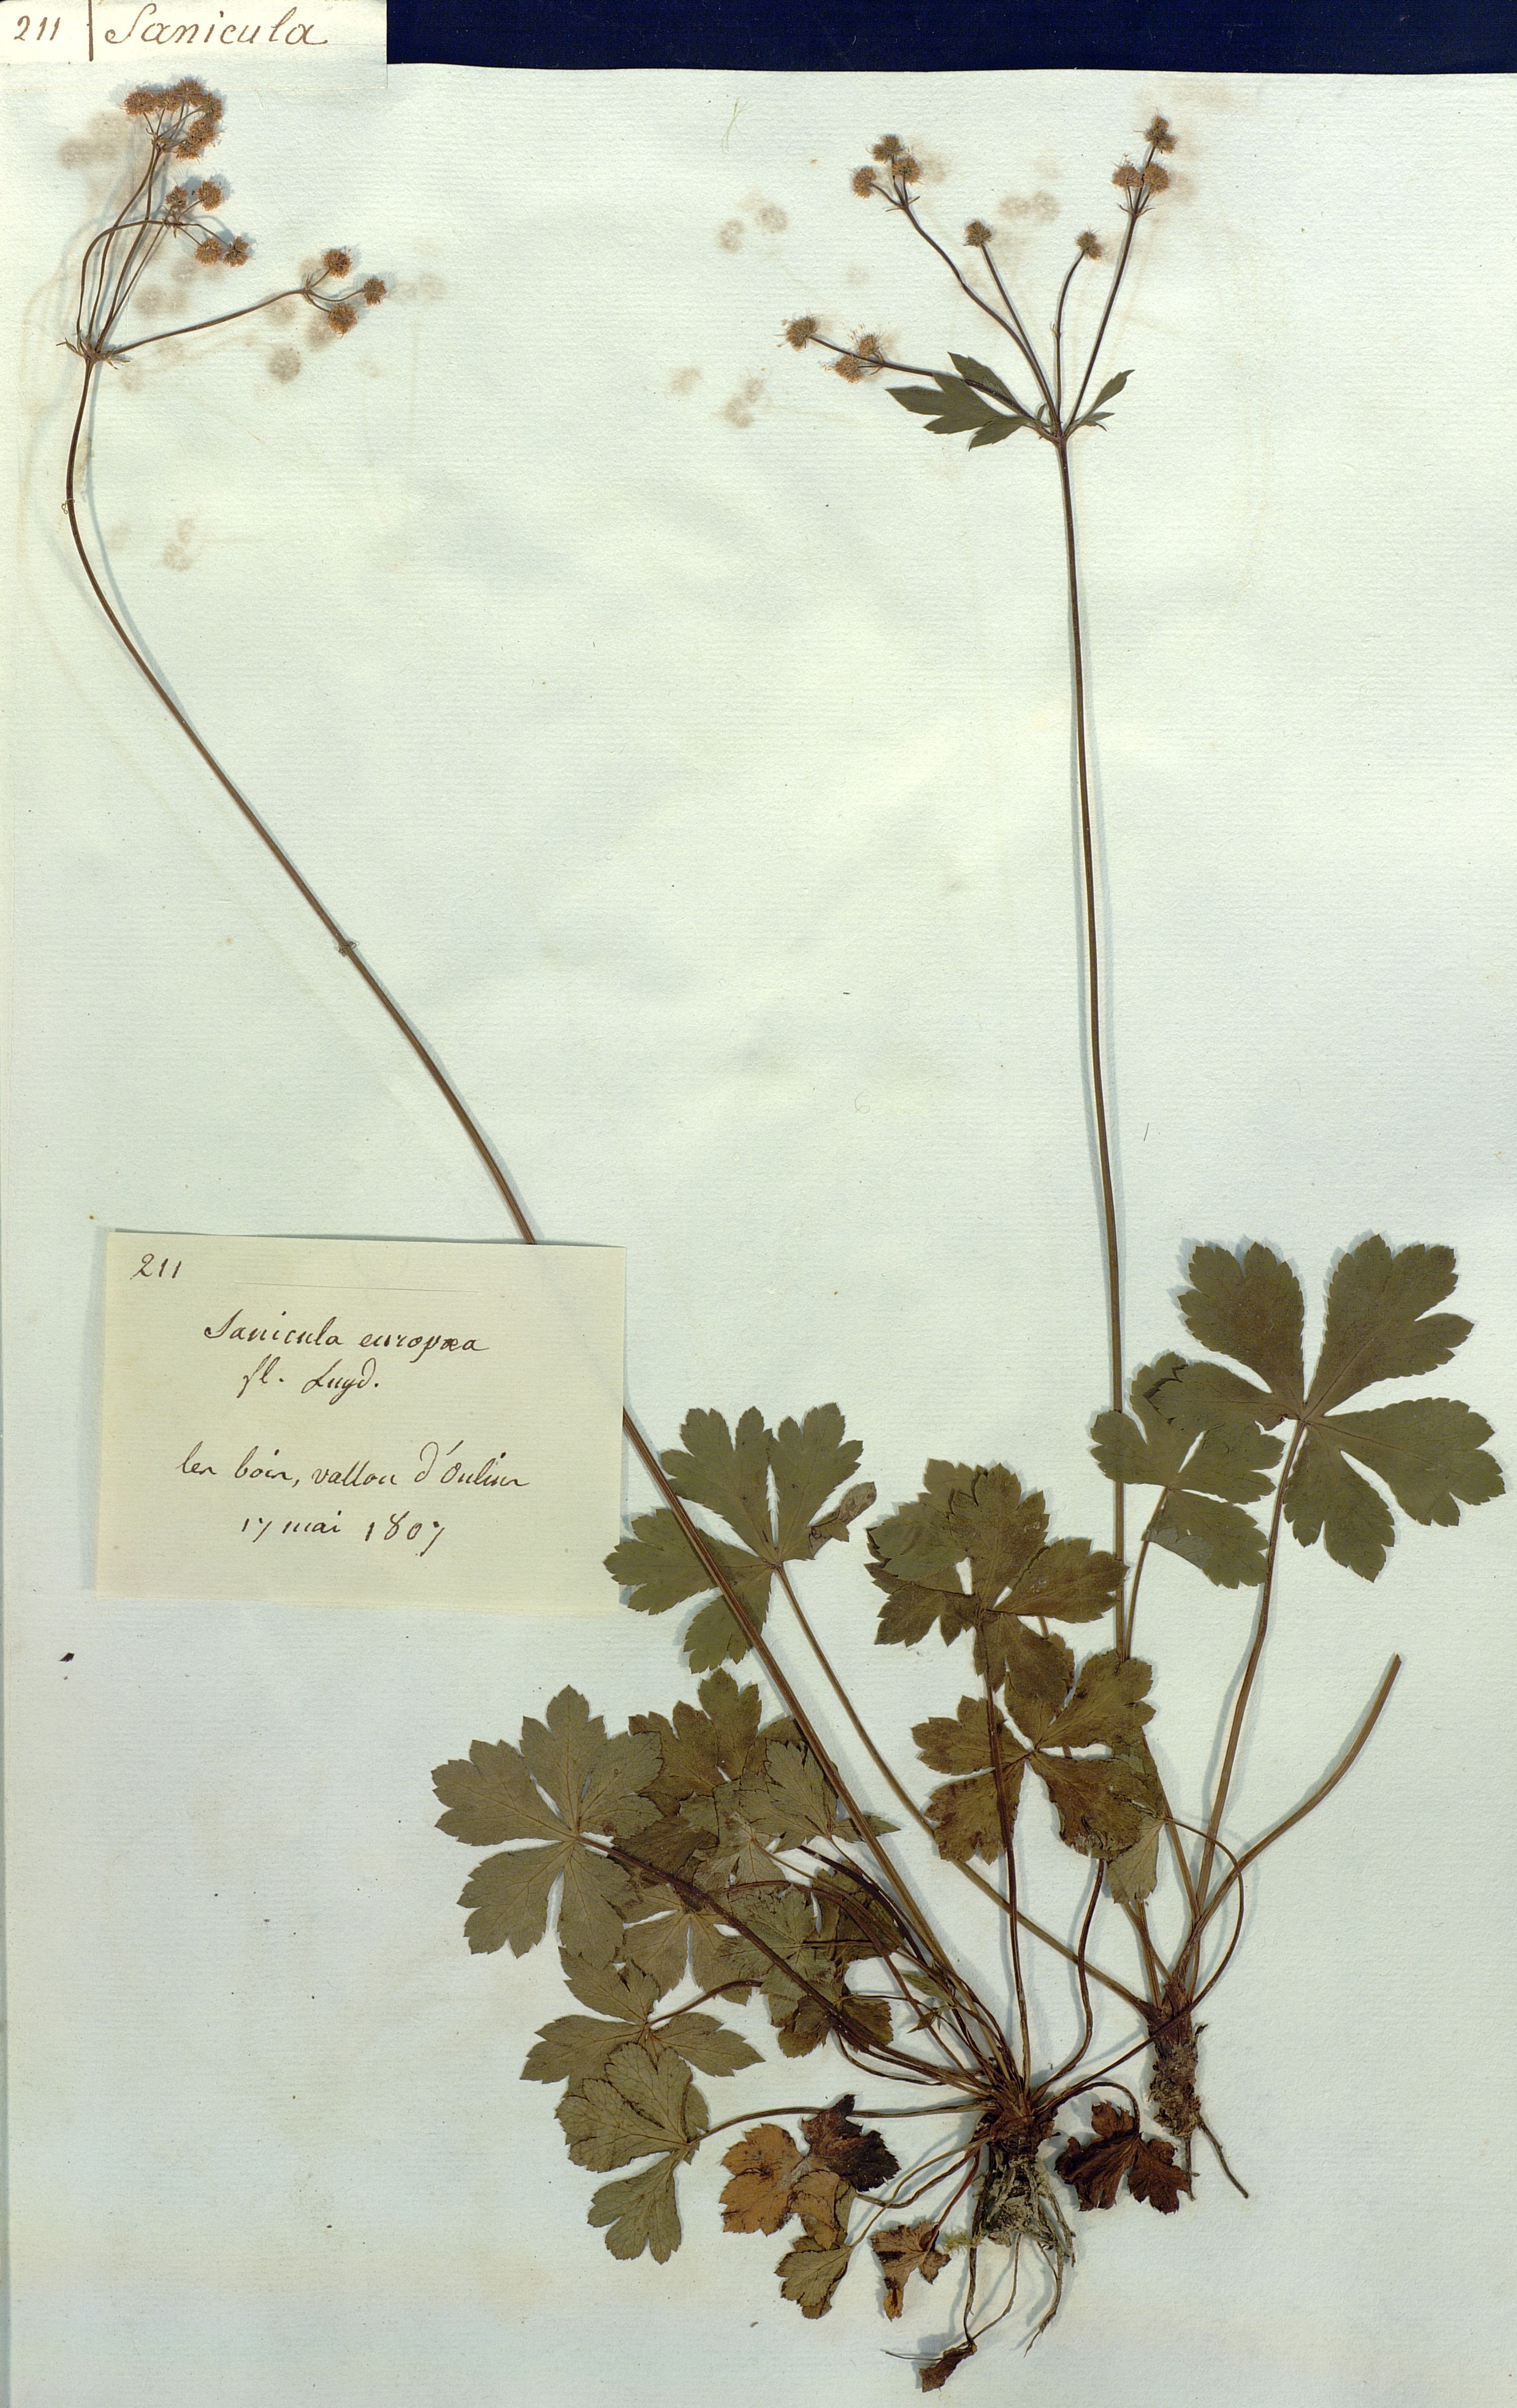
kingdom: Plantae
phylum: Tracheophyta
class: Magnoliopsida
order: Apiales
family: Apiaceae
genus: Sanicula
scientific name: Sanicula europaea
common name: Sanicle
